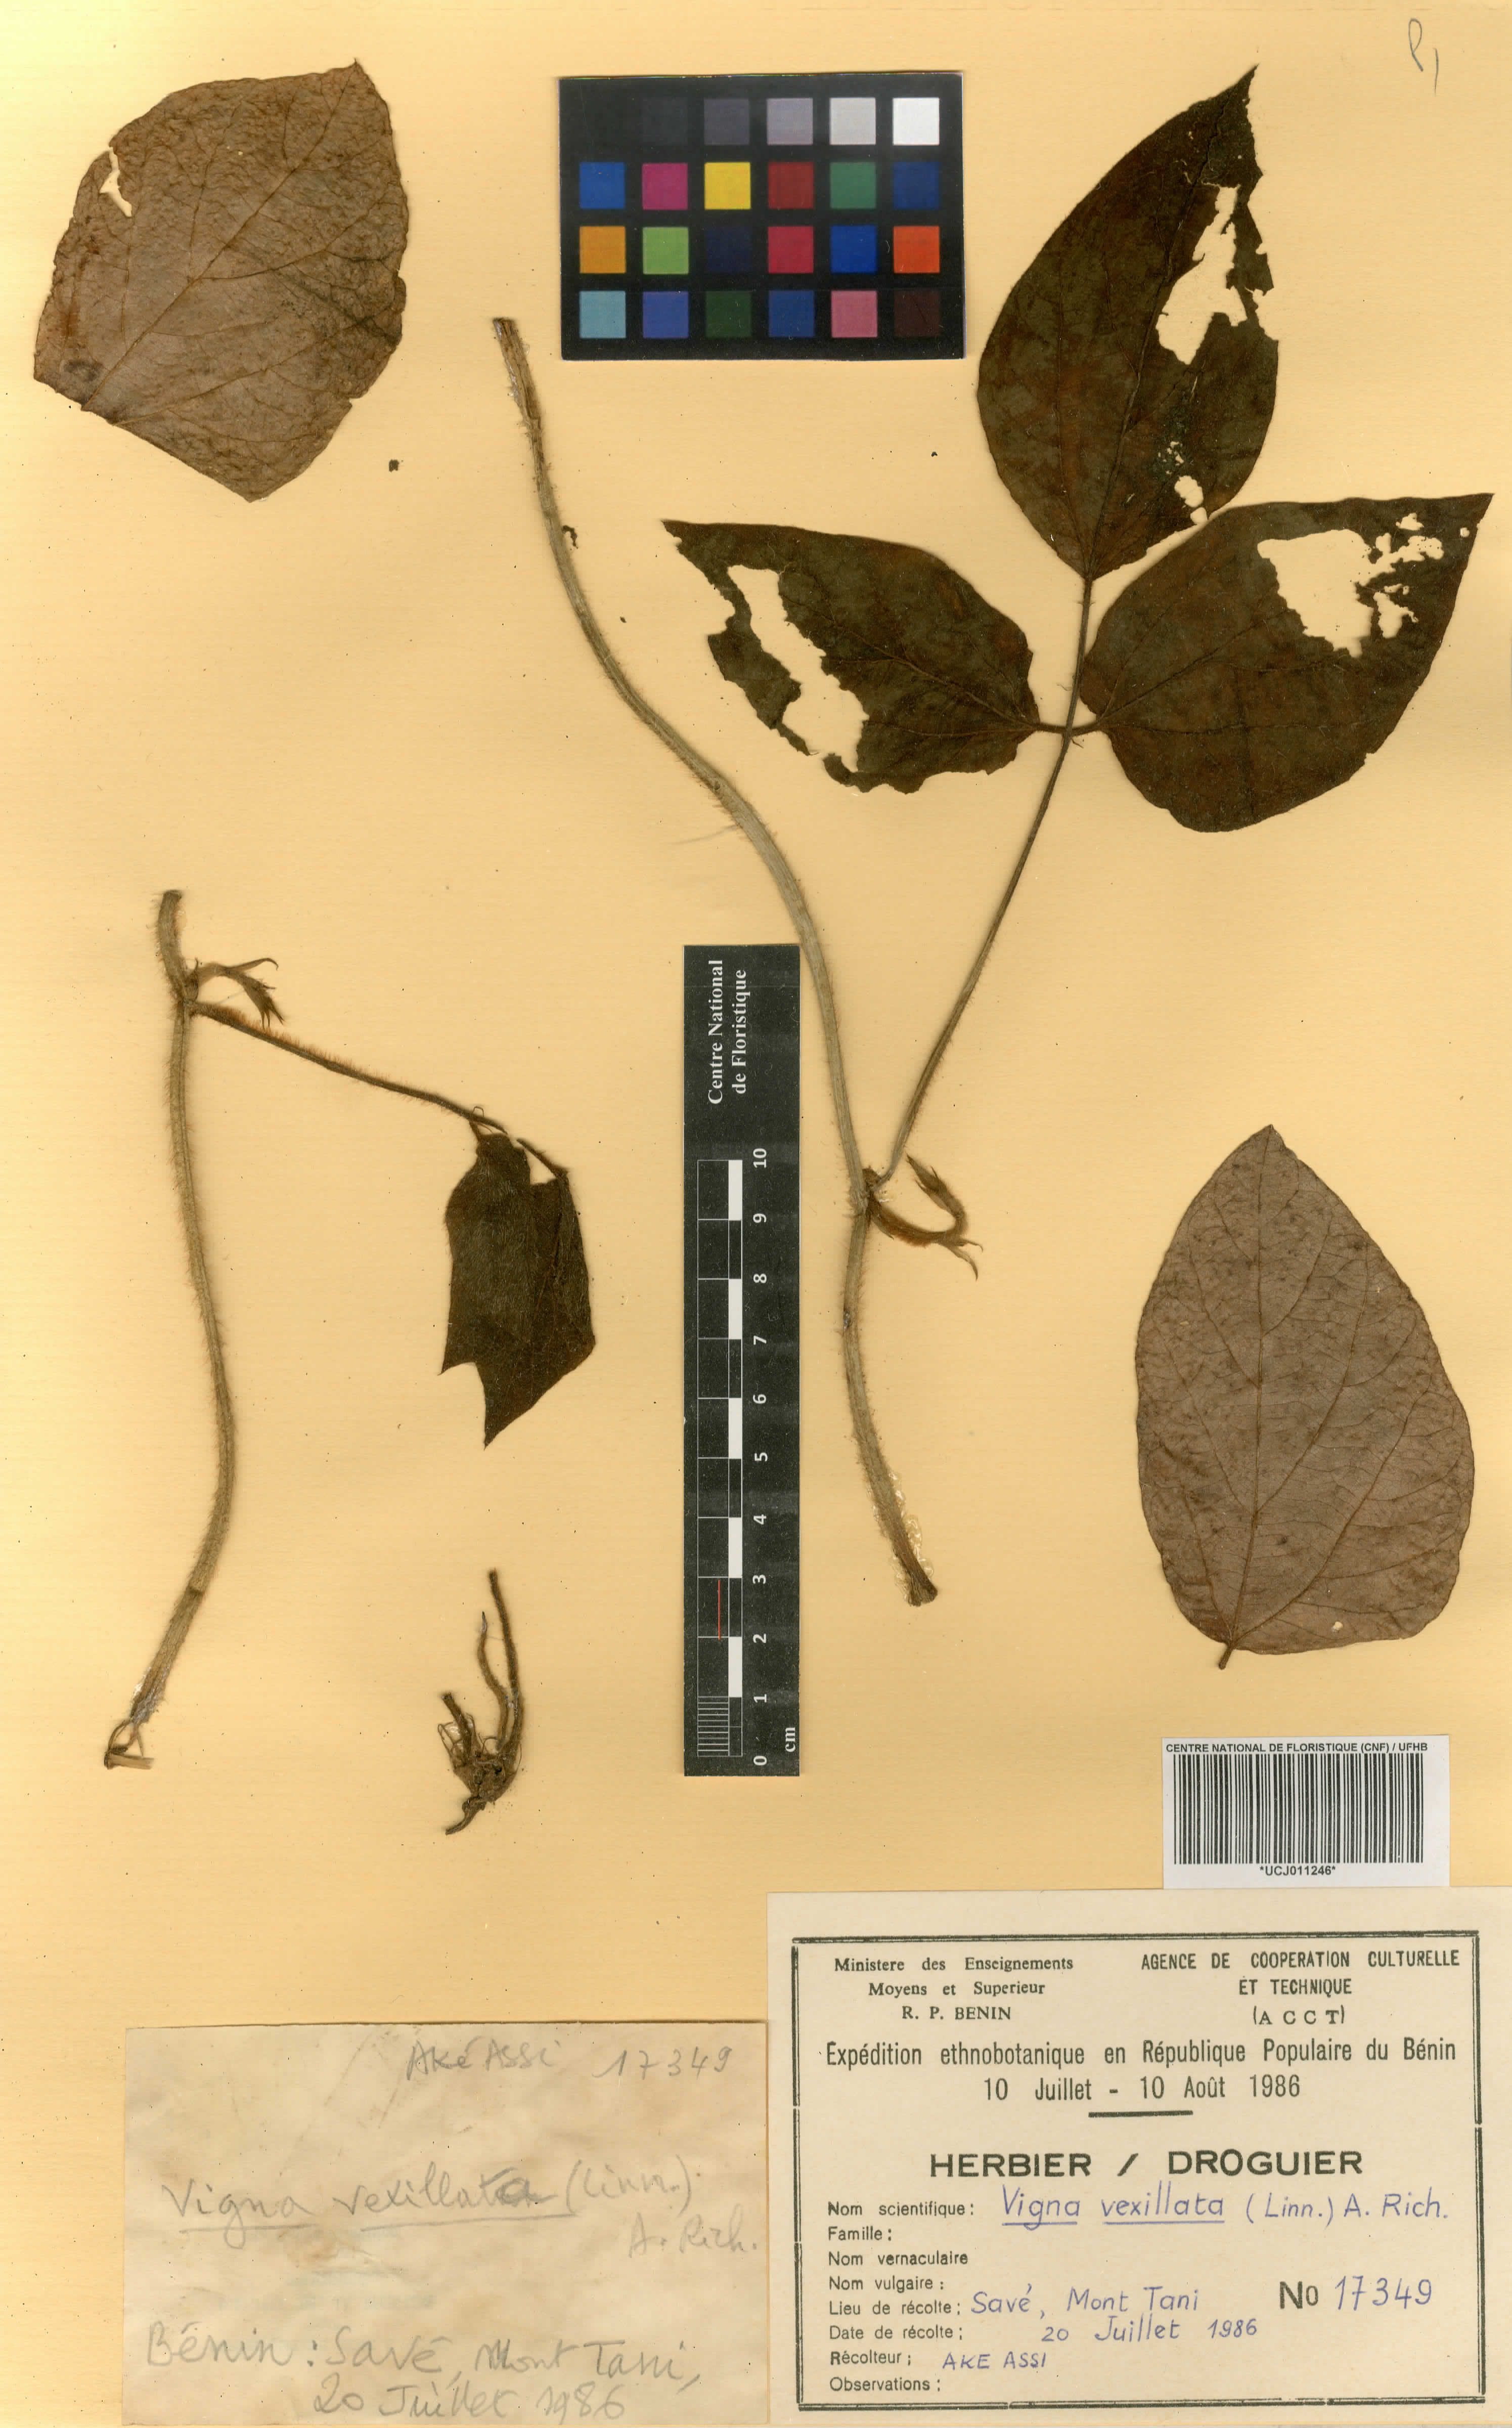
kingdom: Plantae
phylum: Tracheophyta
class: Magnoliopsida
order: Fabales
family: Fabaceae
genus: Vigna
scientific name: Vigna vexillata
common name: Zombi pea
